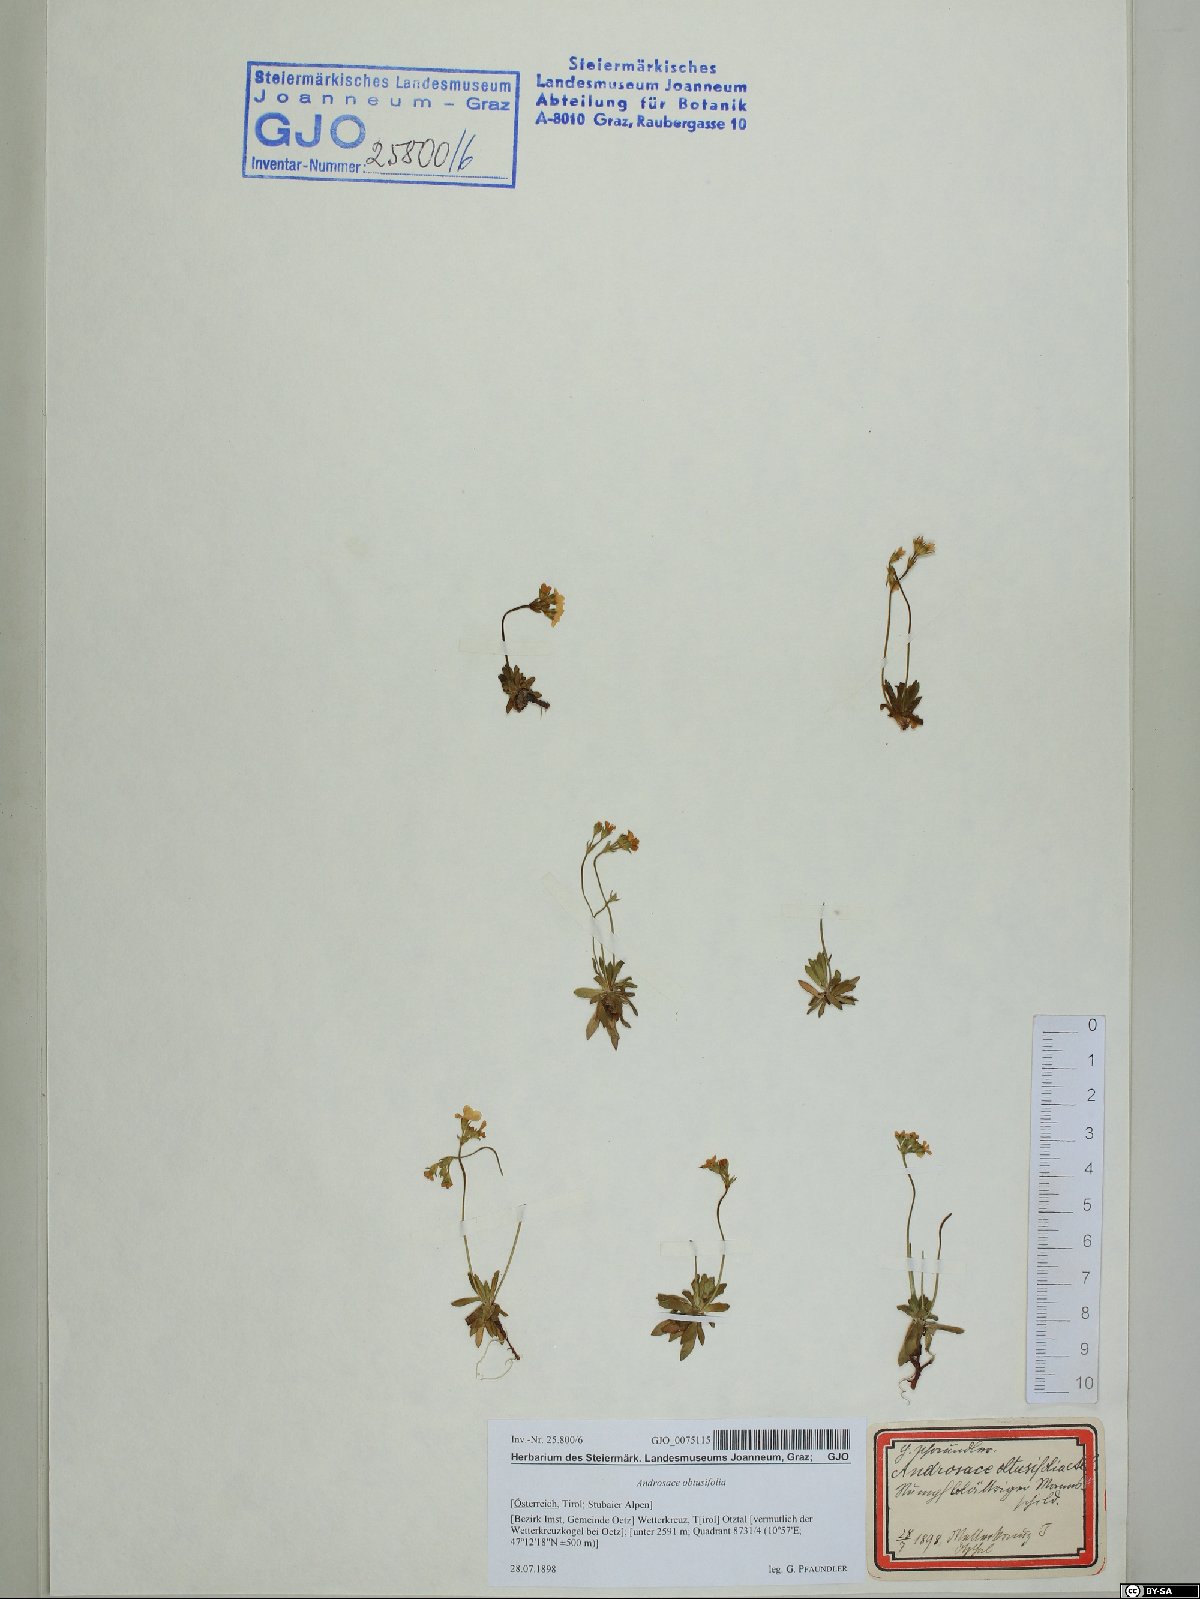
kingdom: Plantae
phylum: Tracheophyta
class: Magnoliopsida
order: Ericales
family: Primulaceae
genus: Androsace
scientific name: Androsace obtusifolia
